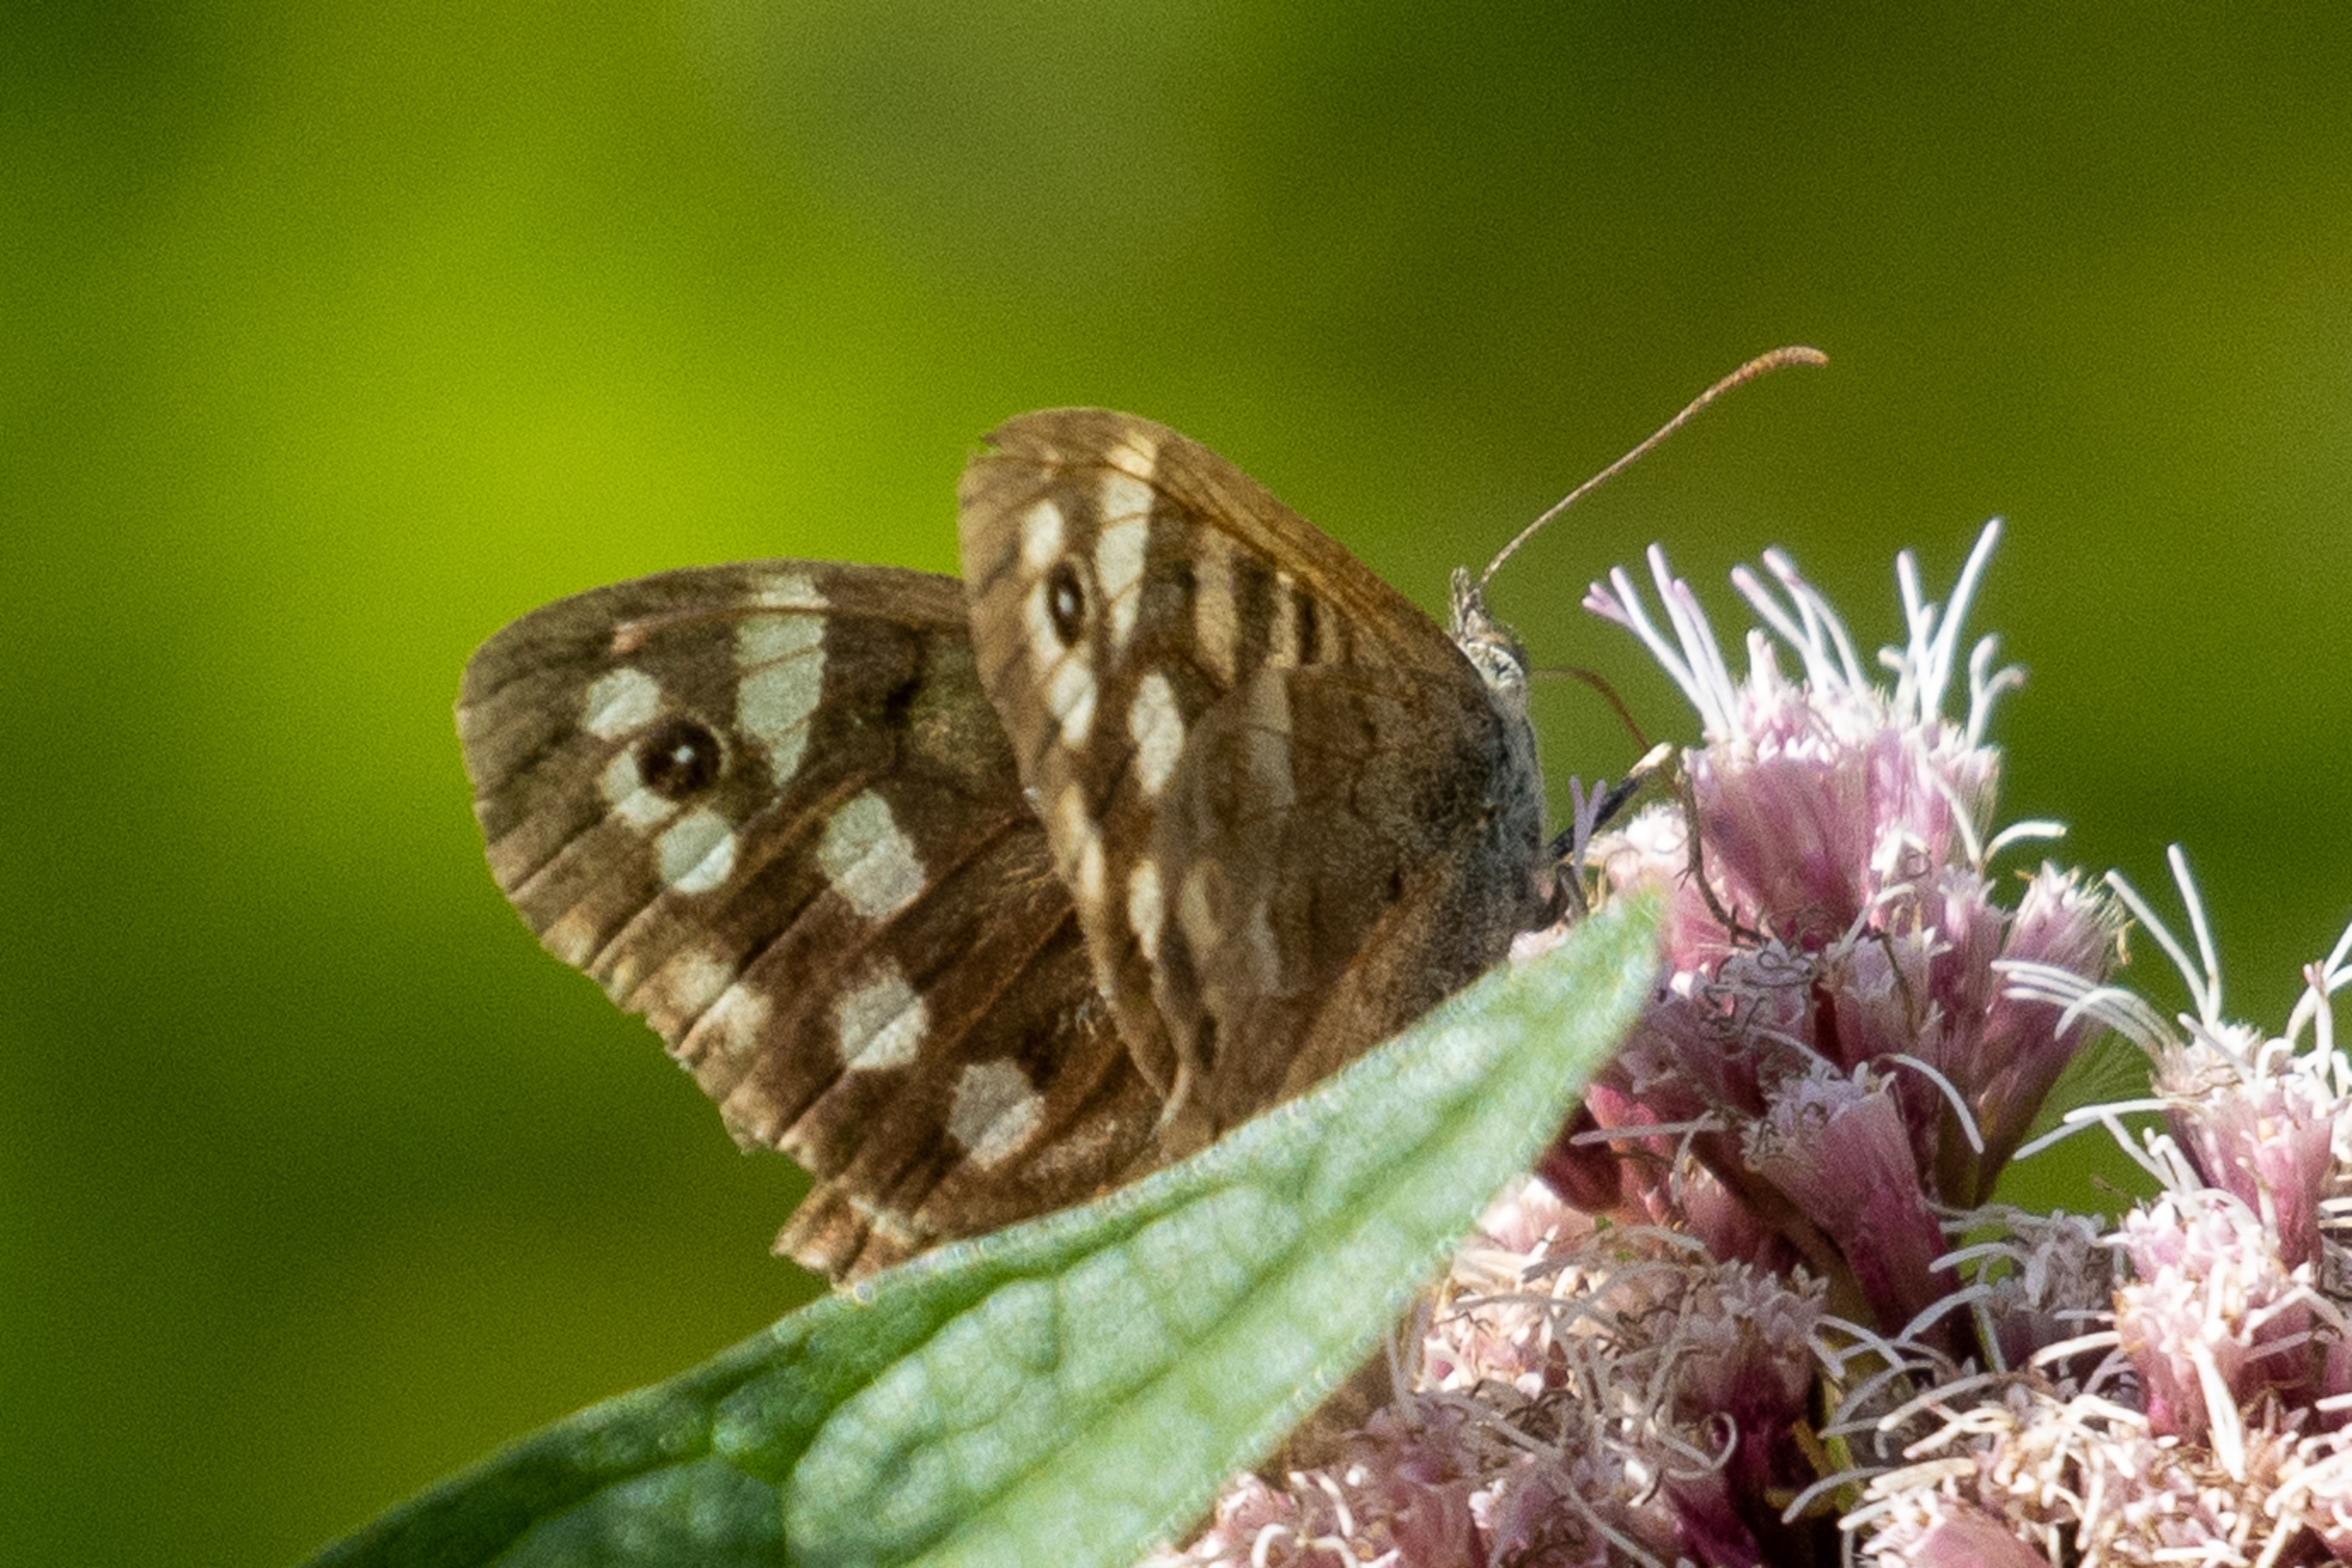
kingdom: Animalia
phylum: Arthropoda
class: Insecta
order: Lepidoptera
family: Nymphalidae
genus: Pararge
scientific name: Pararge aegeria
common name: Skovrandøje
